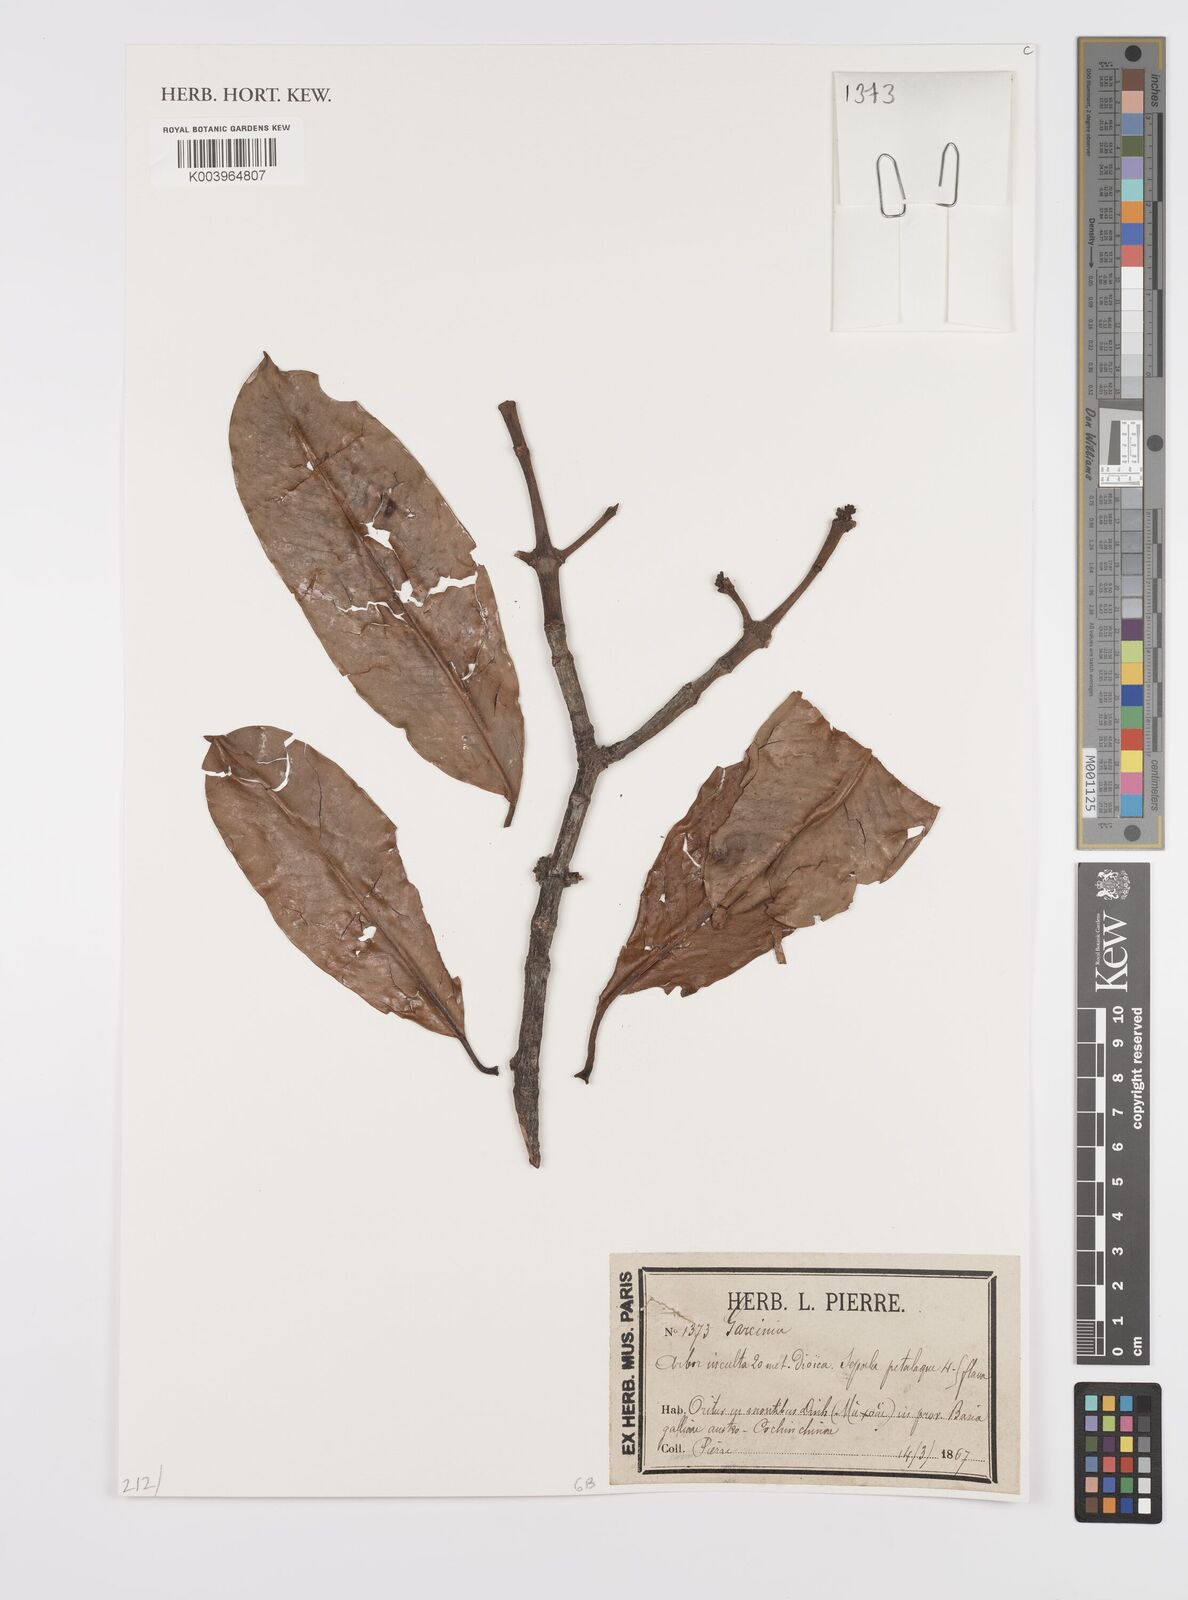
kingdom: Plantae
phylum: Tracheophyta
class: Magnoliopsida
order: Malpighiales
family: Clusiaceae
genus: Garcinia
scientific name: Garcinia
